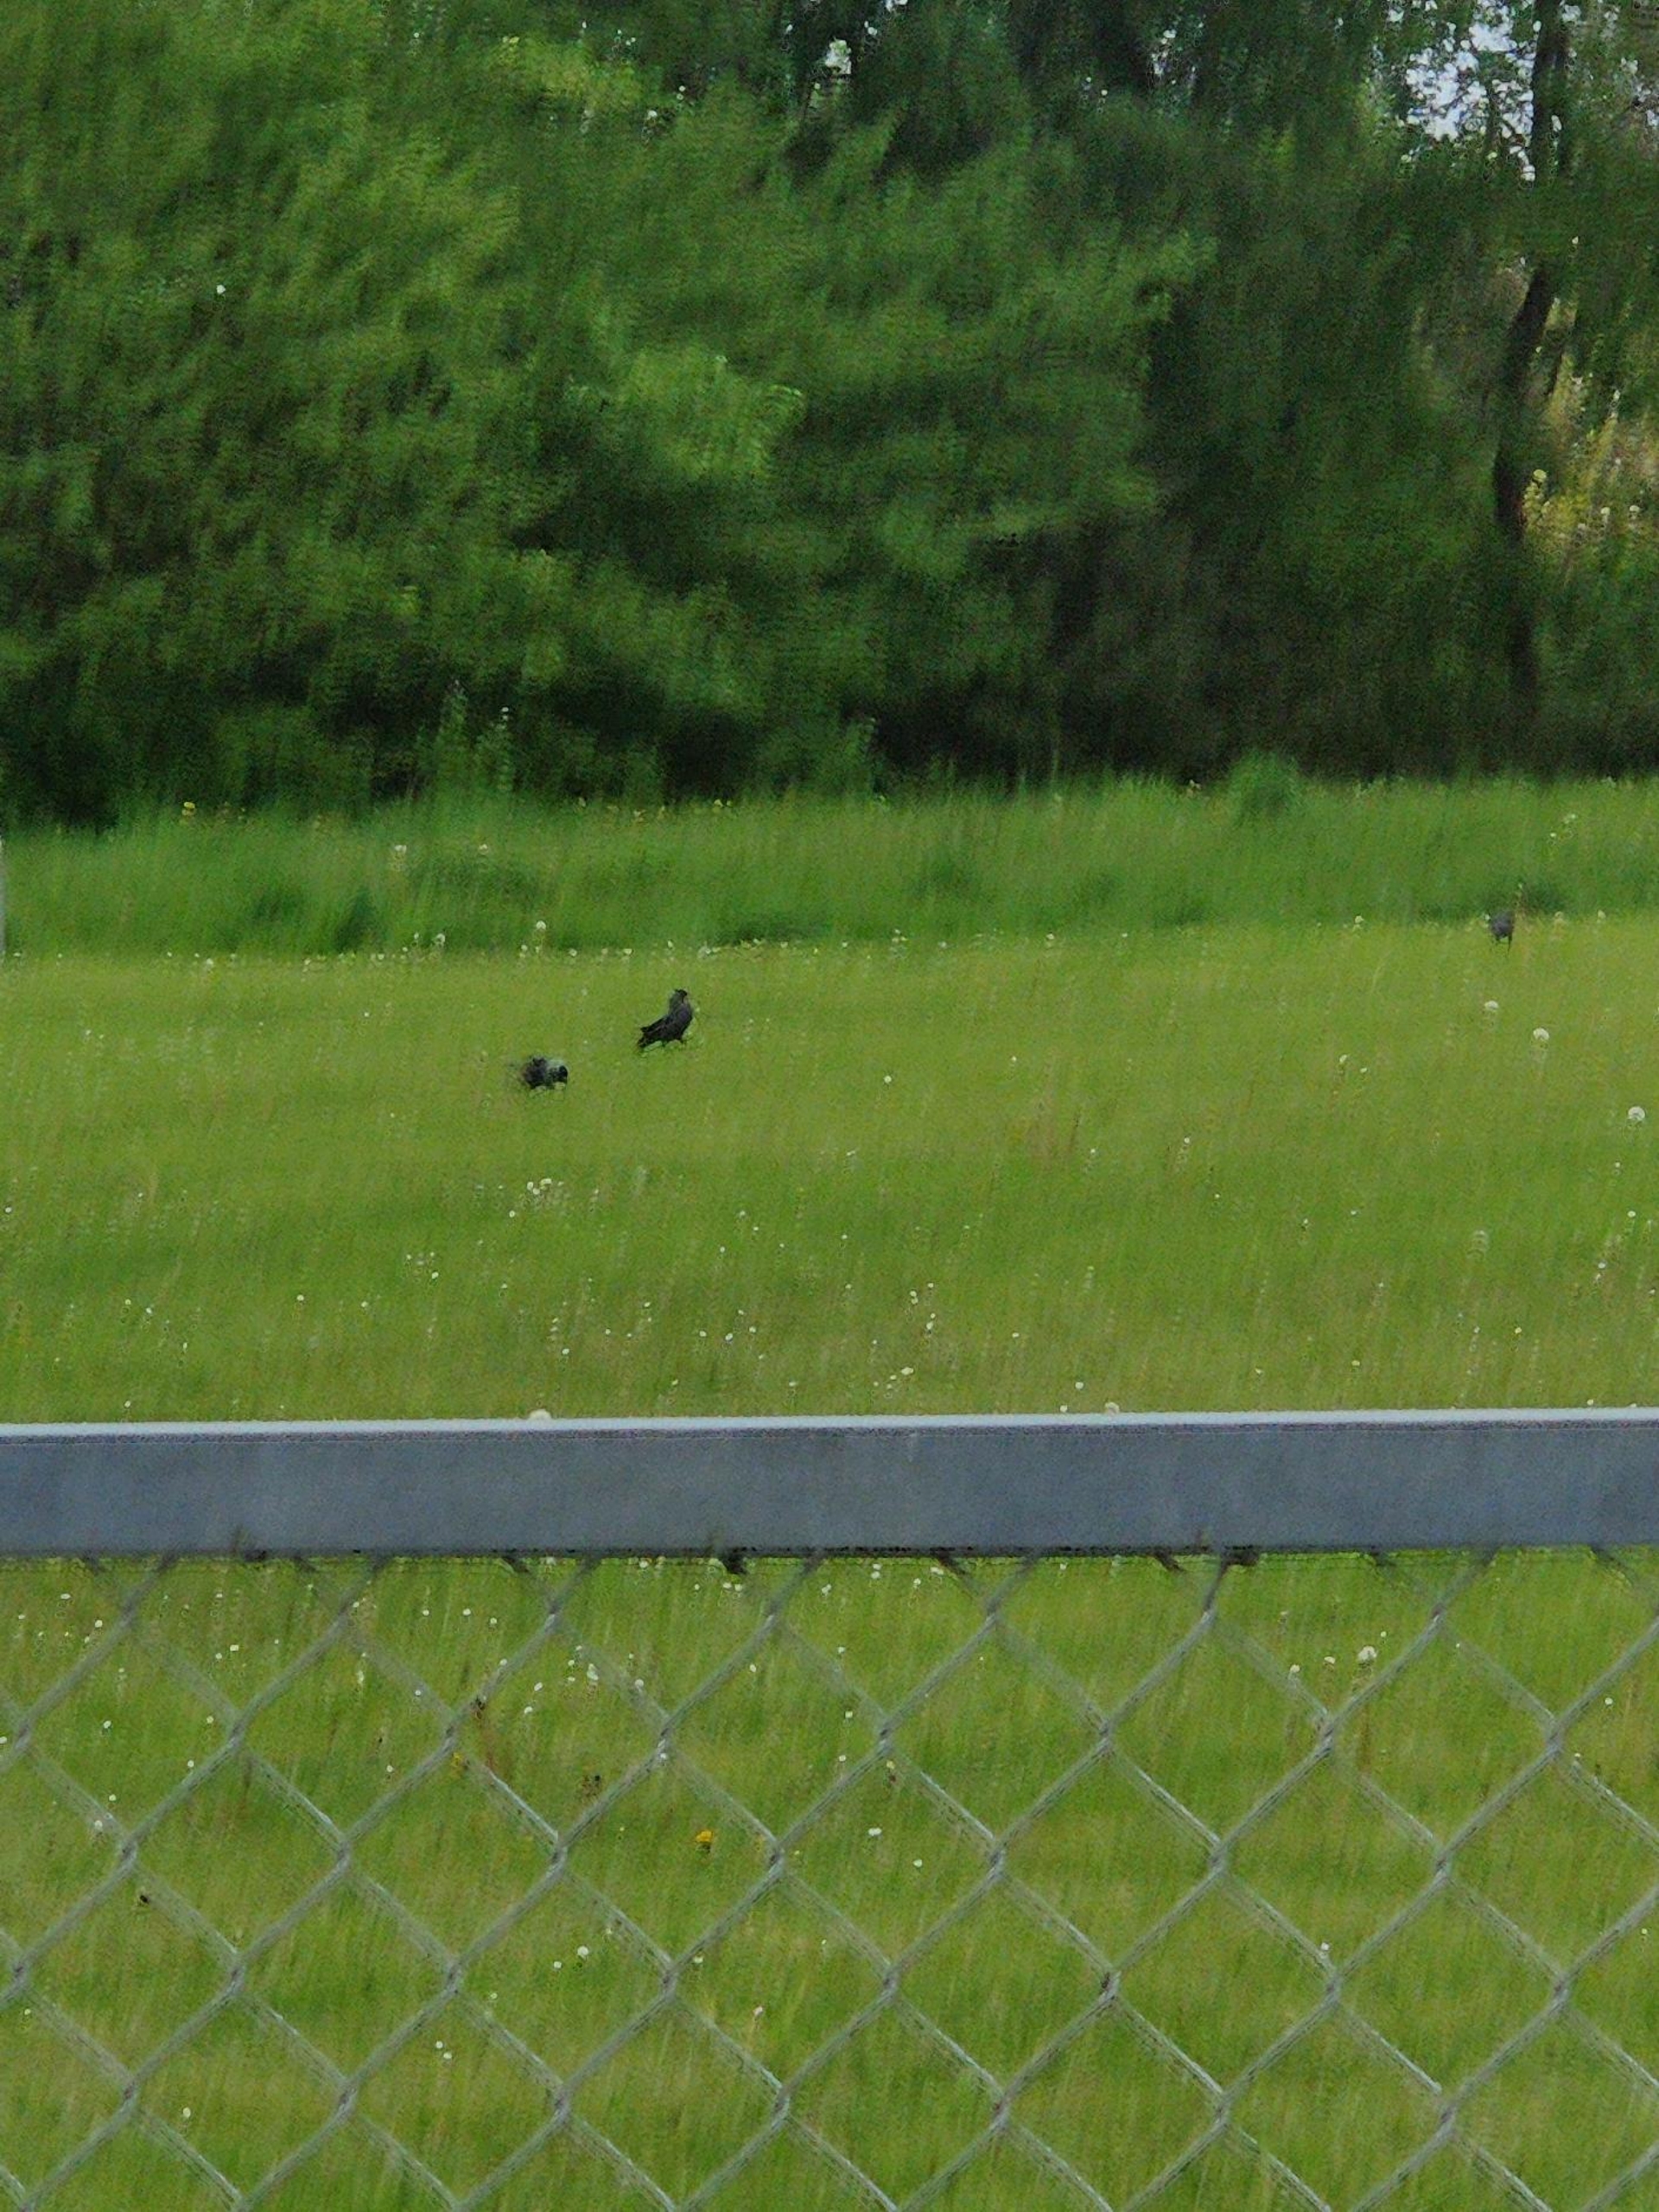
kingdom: Animalia
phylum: Chordata
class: Aves
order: Passeriformes
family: Corvidae
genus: Coloeus
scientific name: Coloeus monedula
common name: Allike
